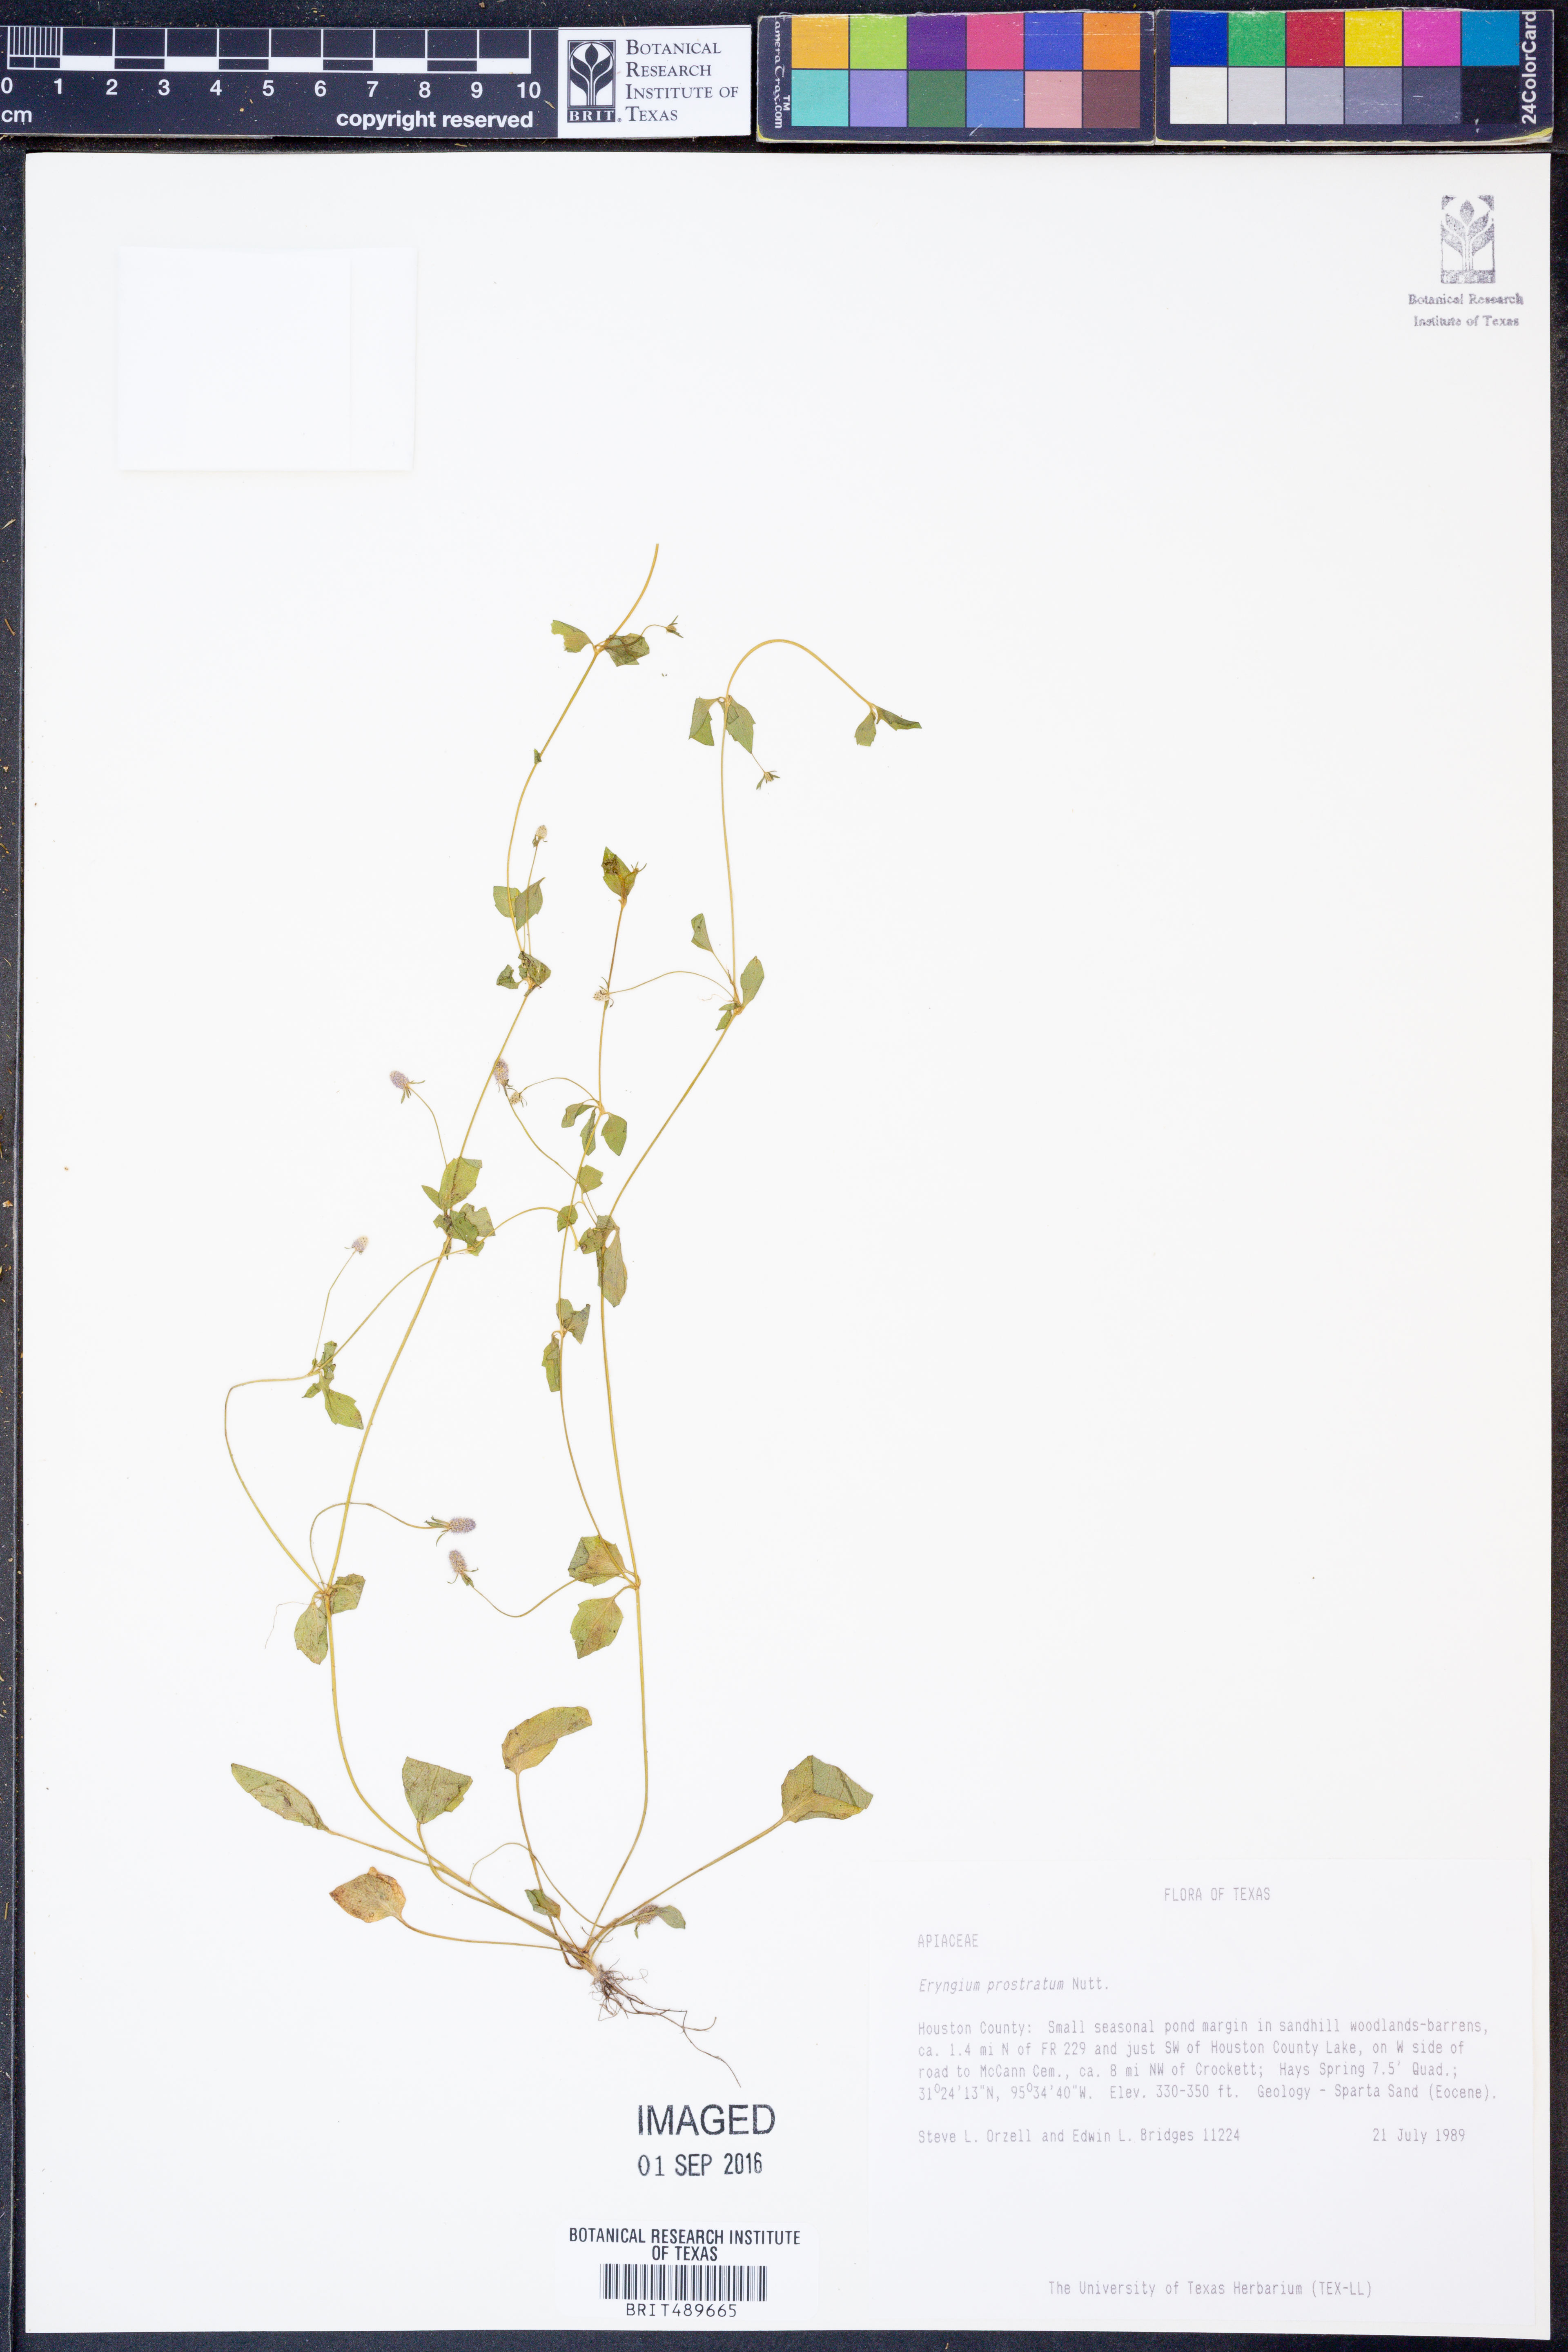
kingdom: Plantae
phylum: Tracheophyta
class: Magnoliopsida
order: Apiales
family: Apiaceae
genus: Eryngium
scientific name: Eryngium prostratum
